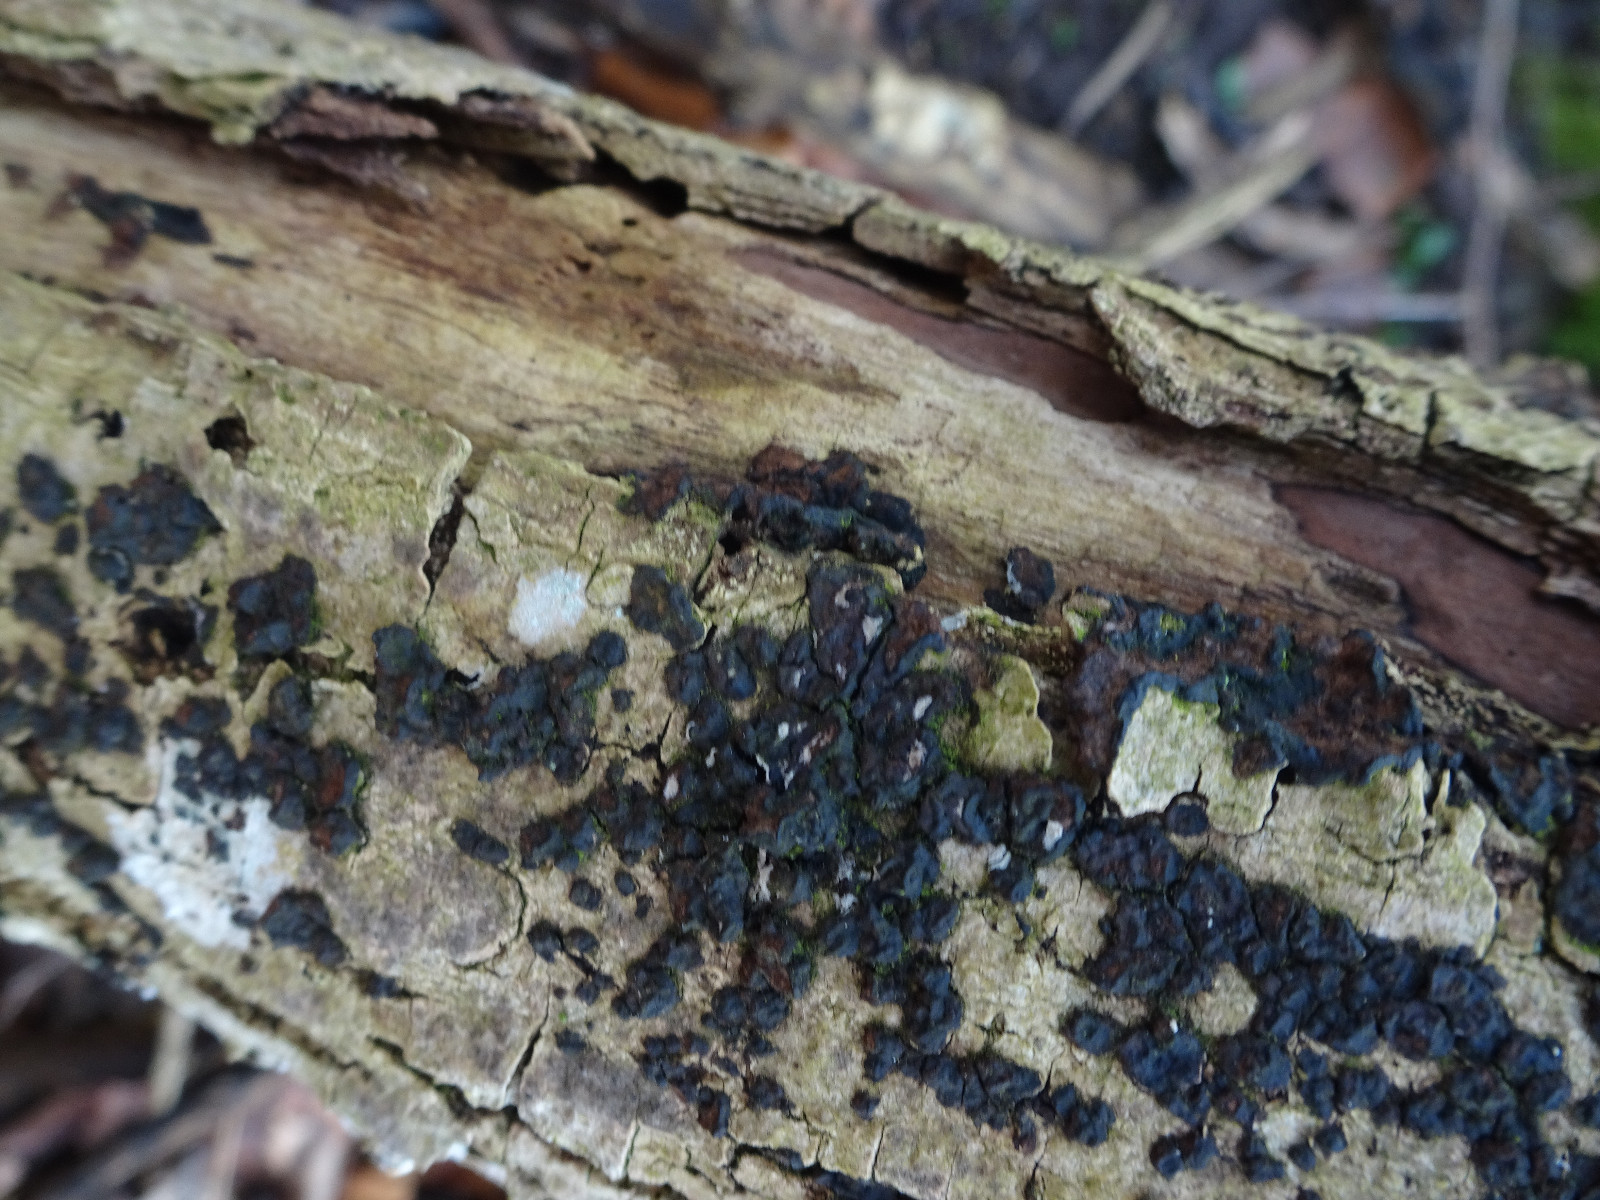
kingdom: Fungi
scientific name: Fungi
